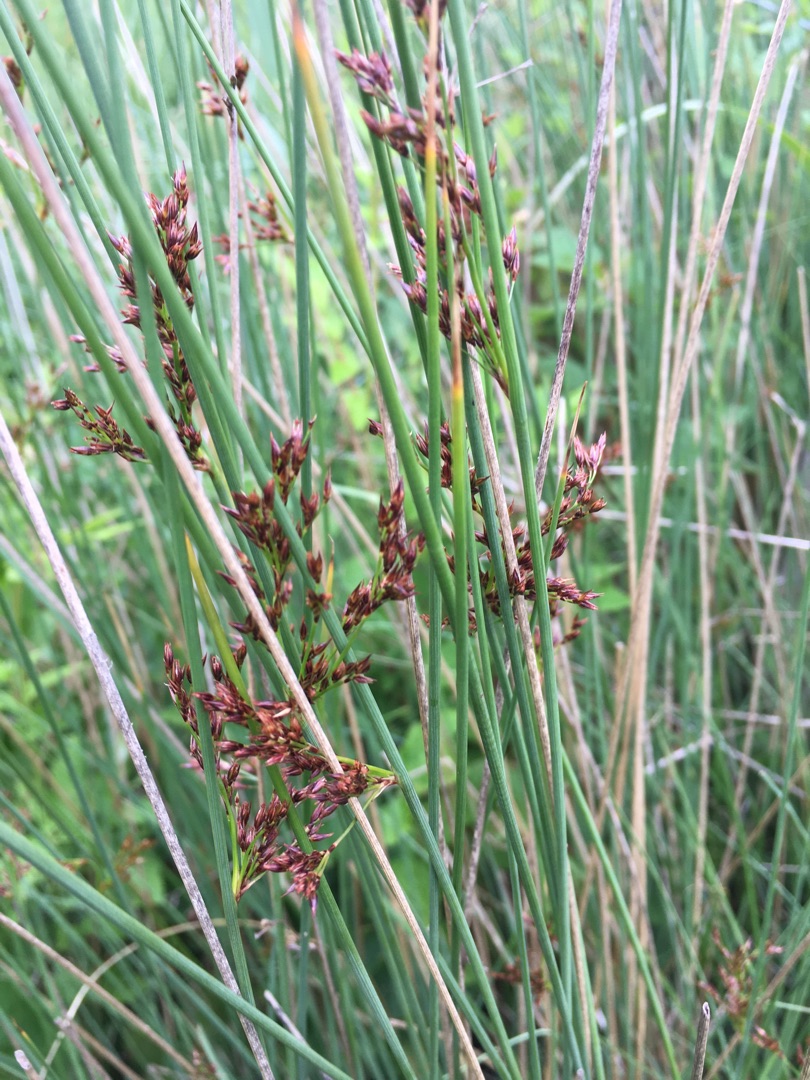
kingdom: Plantae
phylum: Tracheophyta
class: Liliopsida
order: Poales
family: Juncaceae
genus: Juncus
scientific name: Juncus inflexus
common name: Blågrå siv
